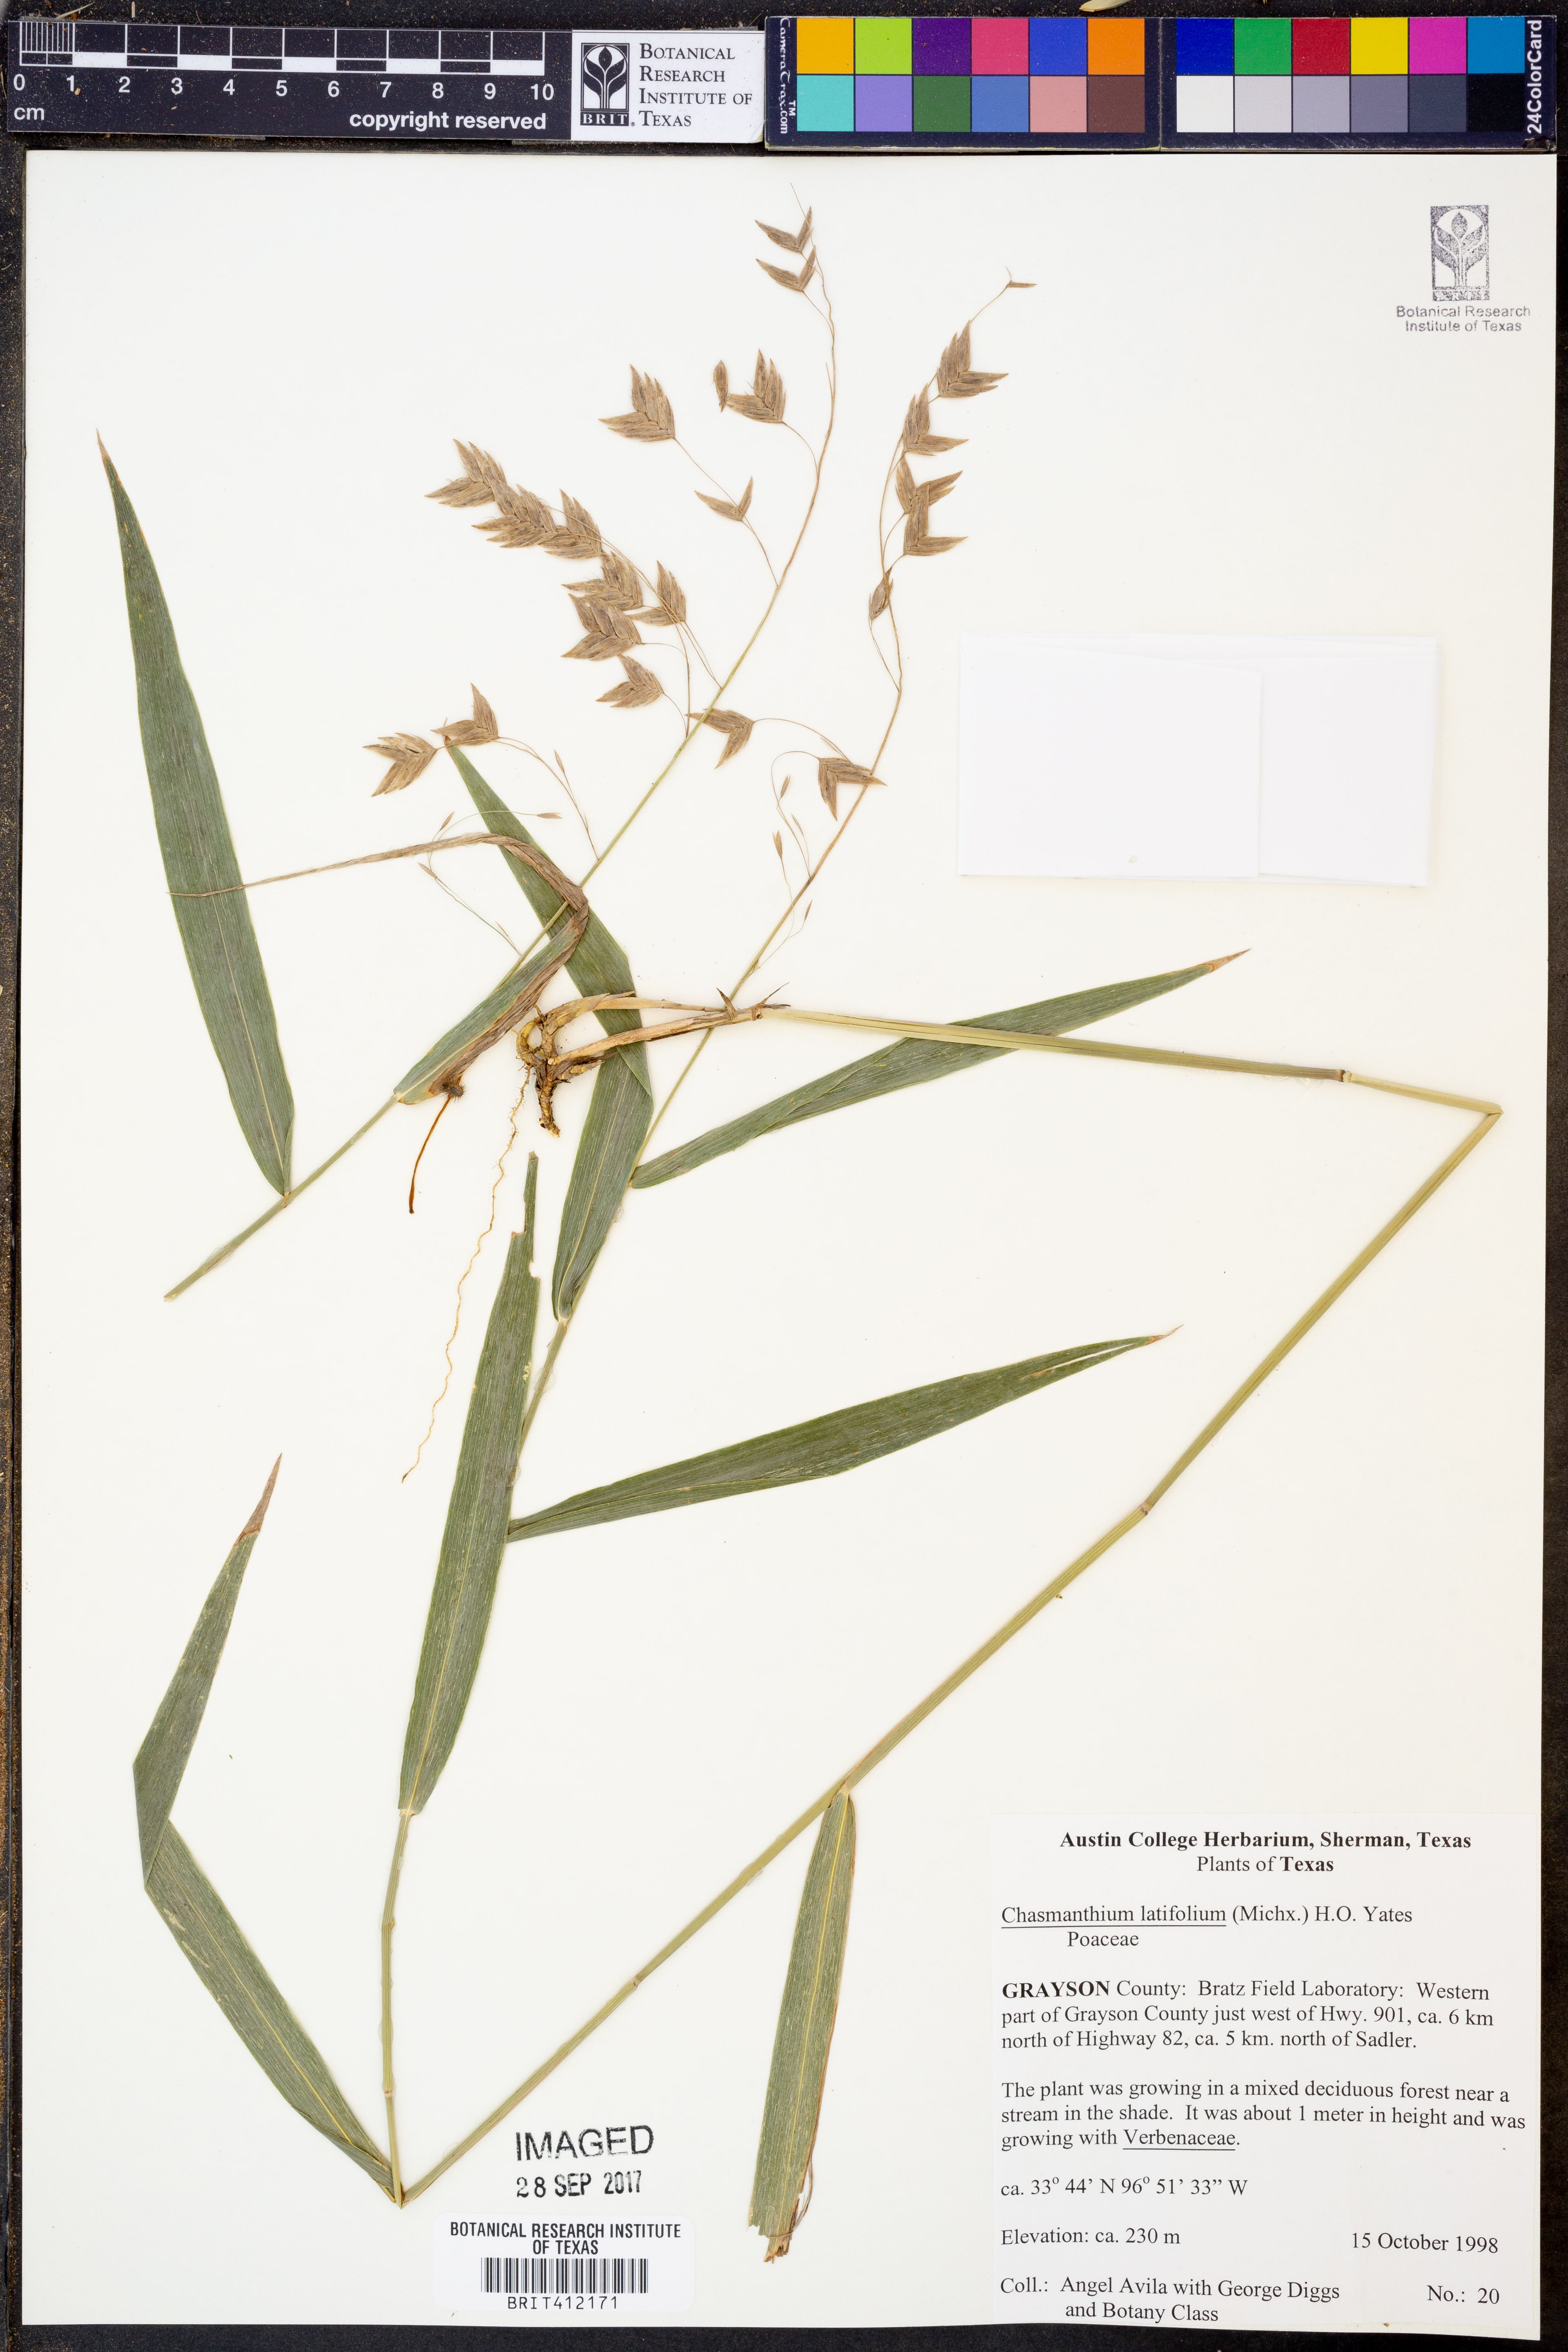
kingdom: Plantae
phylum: Tracheophyta
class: Liliopsida
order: Poales
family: Poaceae
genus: Chasmanthium
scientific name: Chasmanthium latifolium
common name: Broad-leaved chasmanthium
